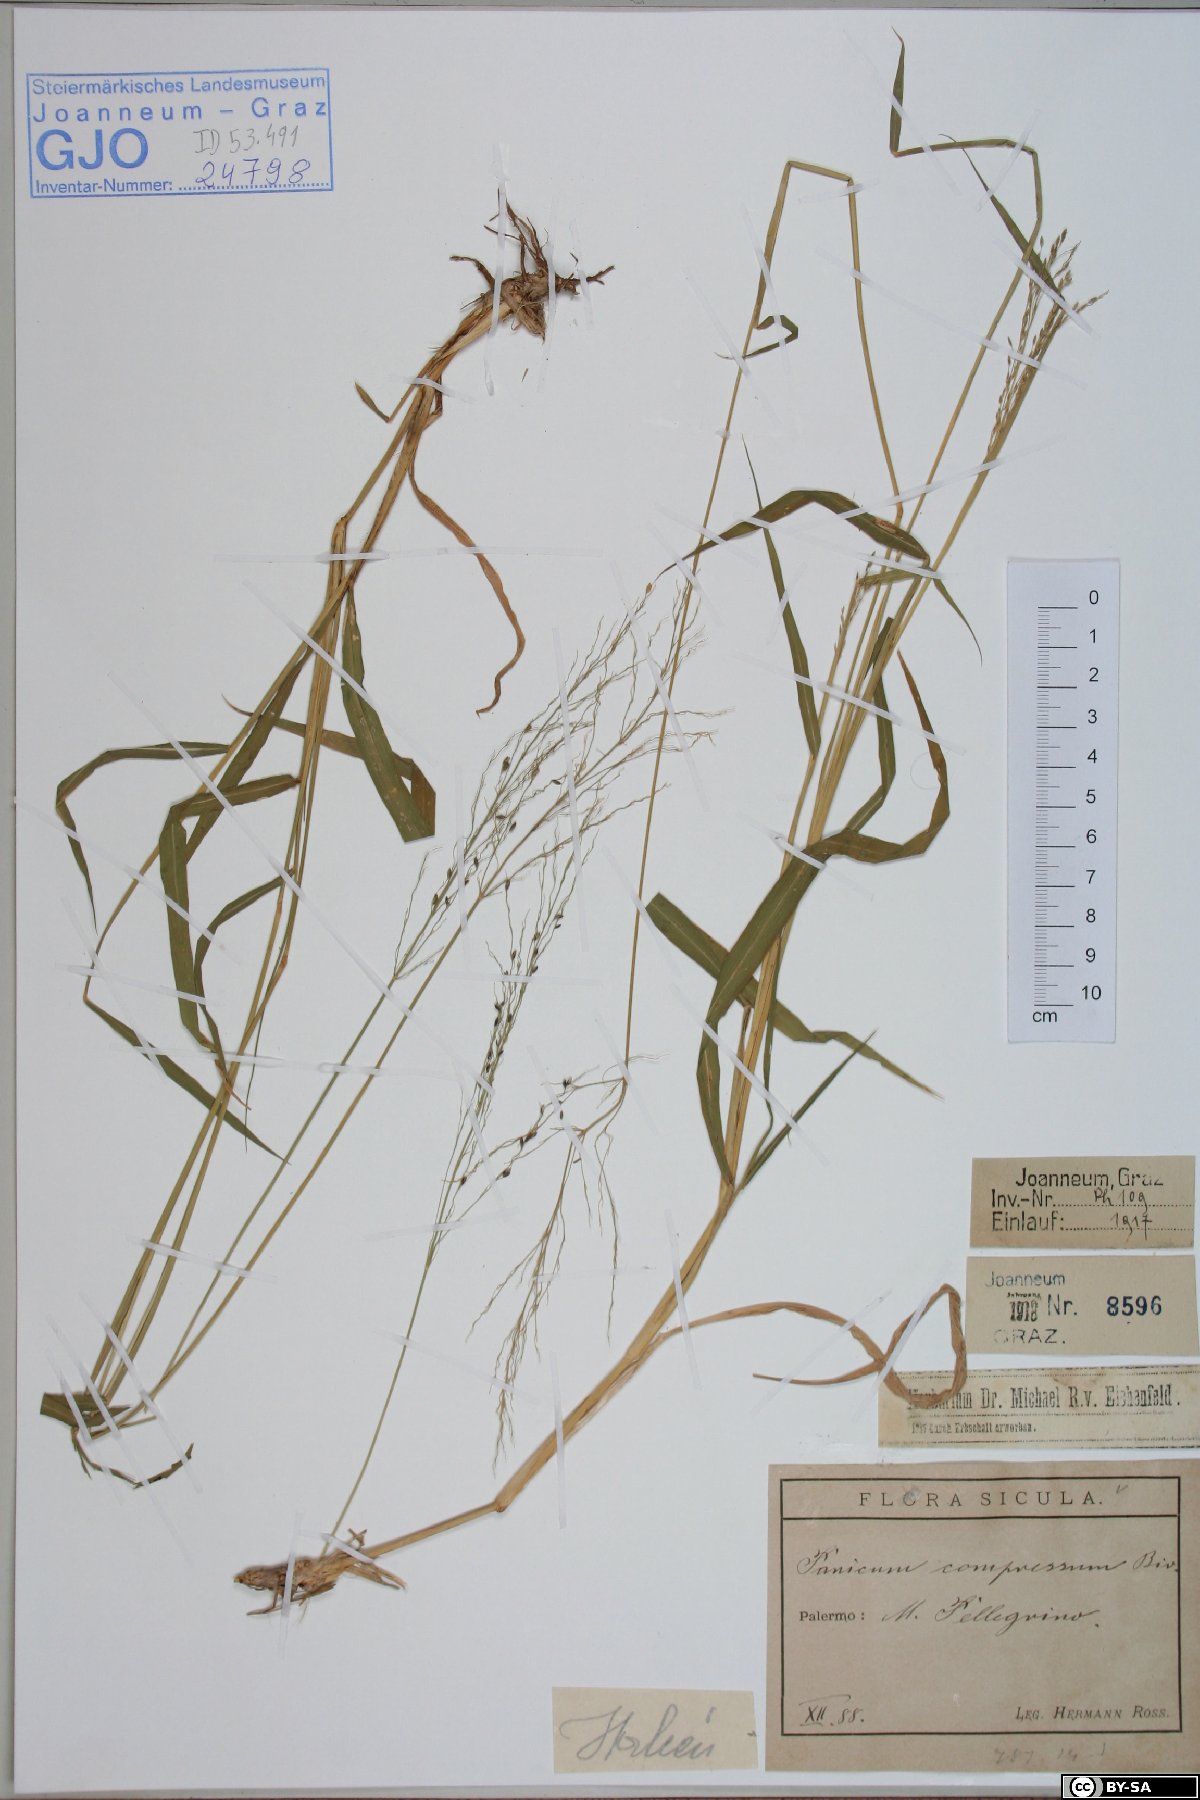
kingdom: Plantae
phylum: Tracheophyta
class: Liliopsida
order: Poales
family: Poaceae
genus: Megathyrsus
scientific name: Megathyrsus maximus
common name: Guineagrass
